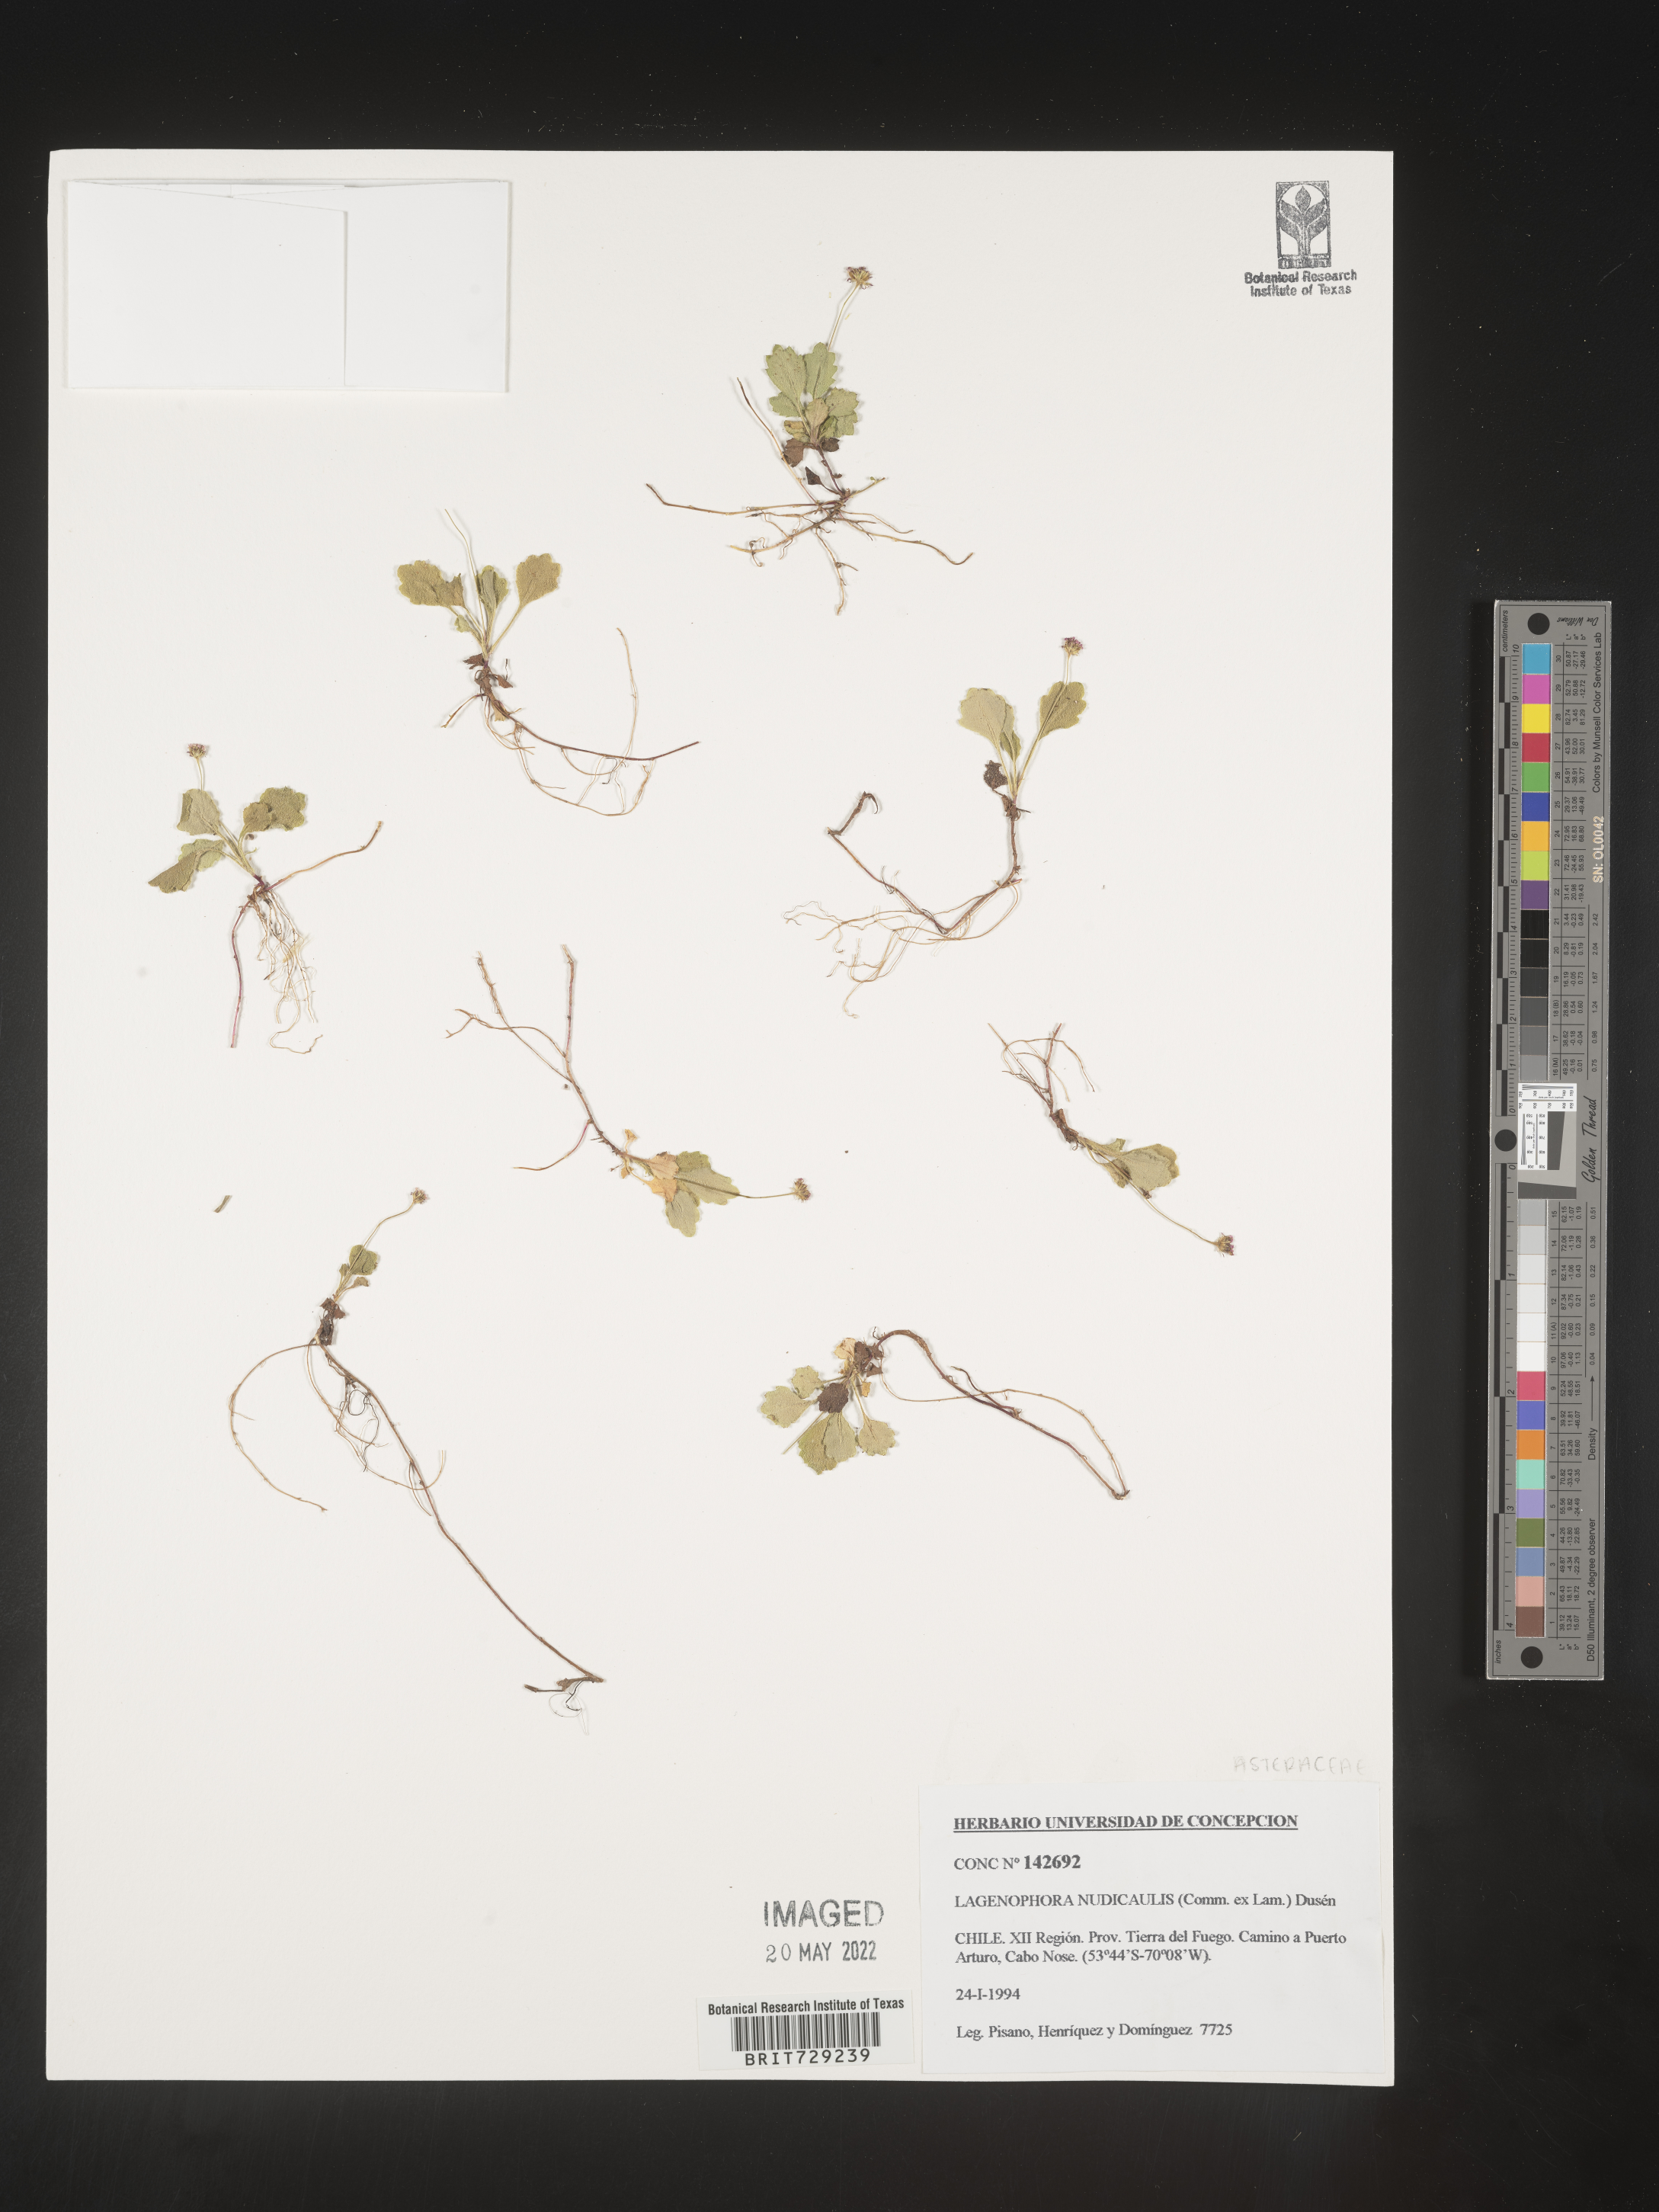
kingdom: Plantae
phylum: Tracheophyta
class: Magnoliopsida
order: Asterales
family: Asteraceae
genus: Lagenophora
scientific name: Lagenophora
